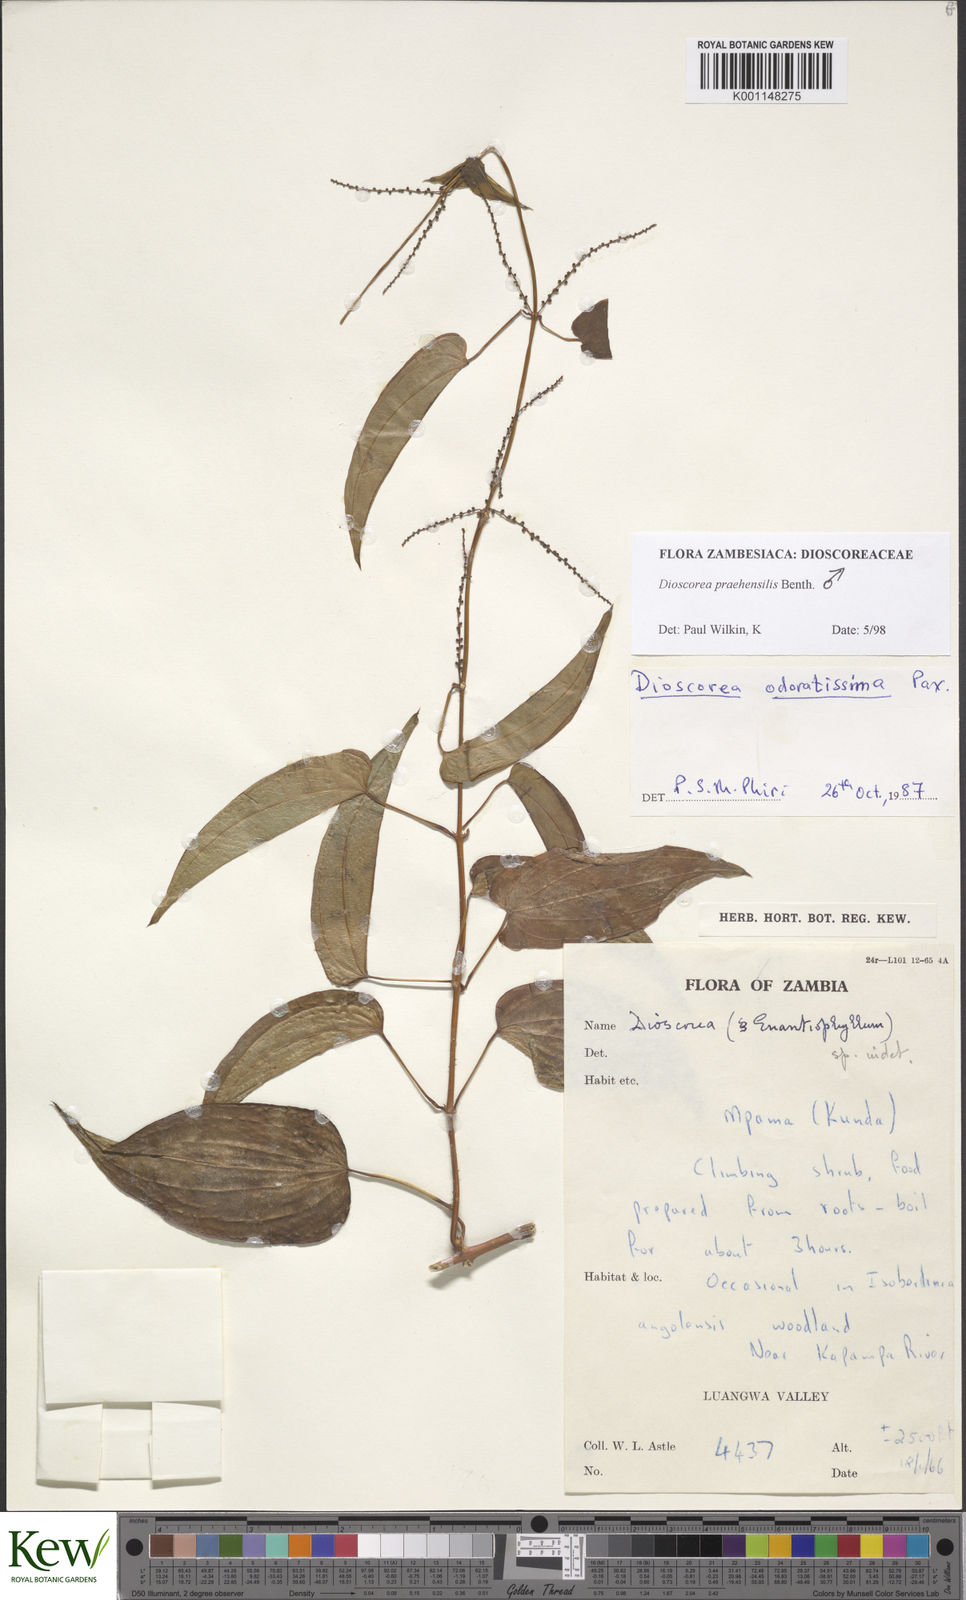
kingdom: Plantae
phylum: Tracheophyta
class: Liliopsida
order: Dioscoreales
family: Dioscoreaceae
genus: Dioscorea
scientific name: Dioscorea praehensilis
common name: Bush yam
